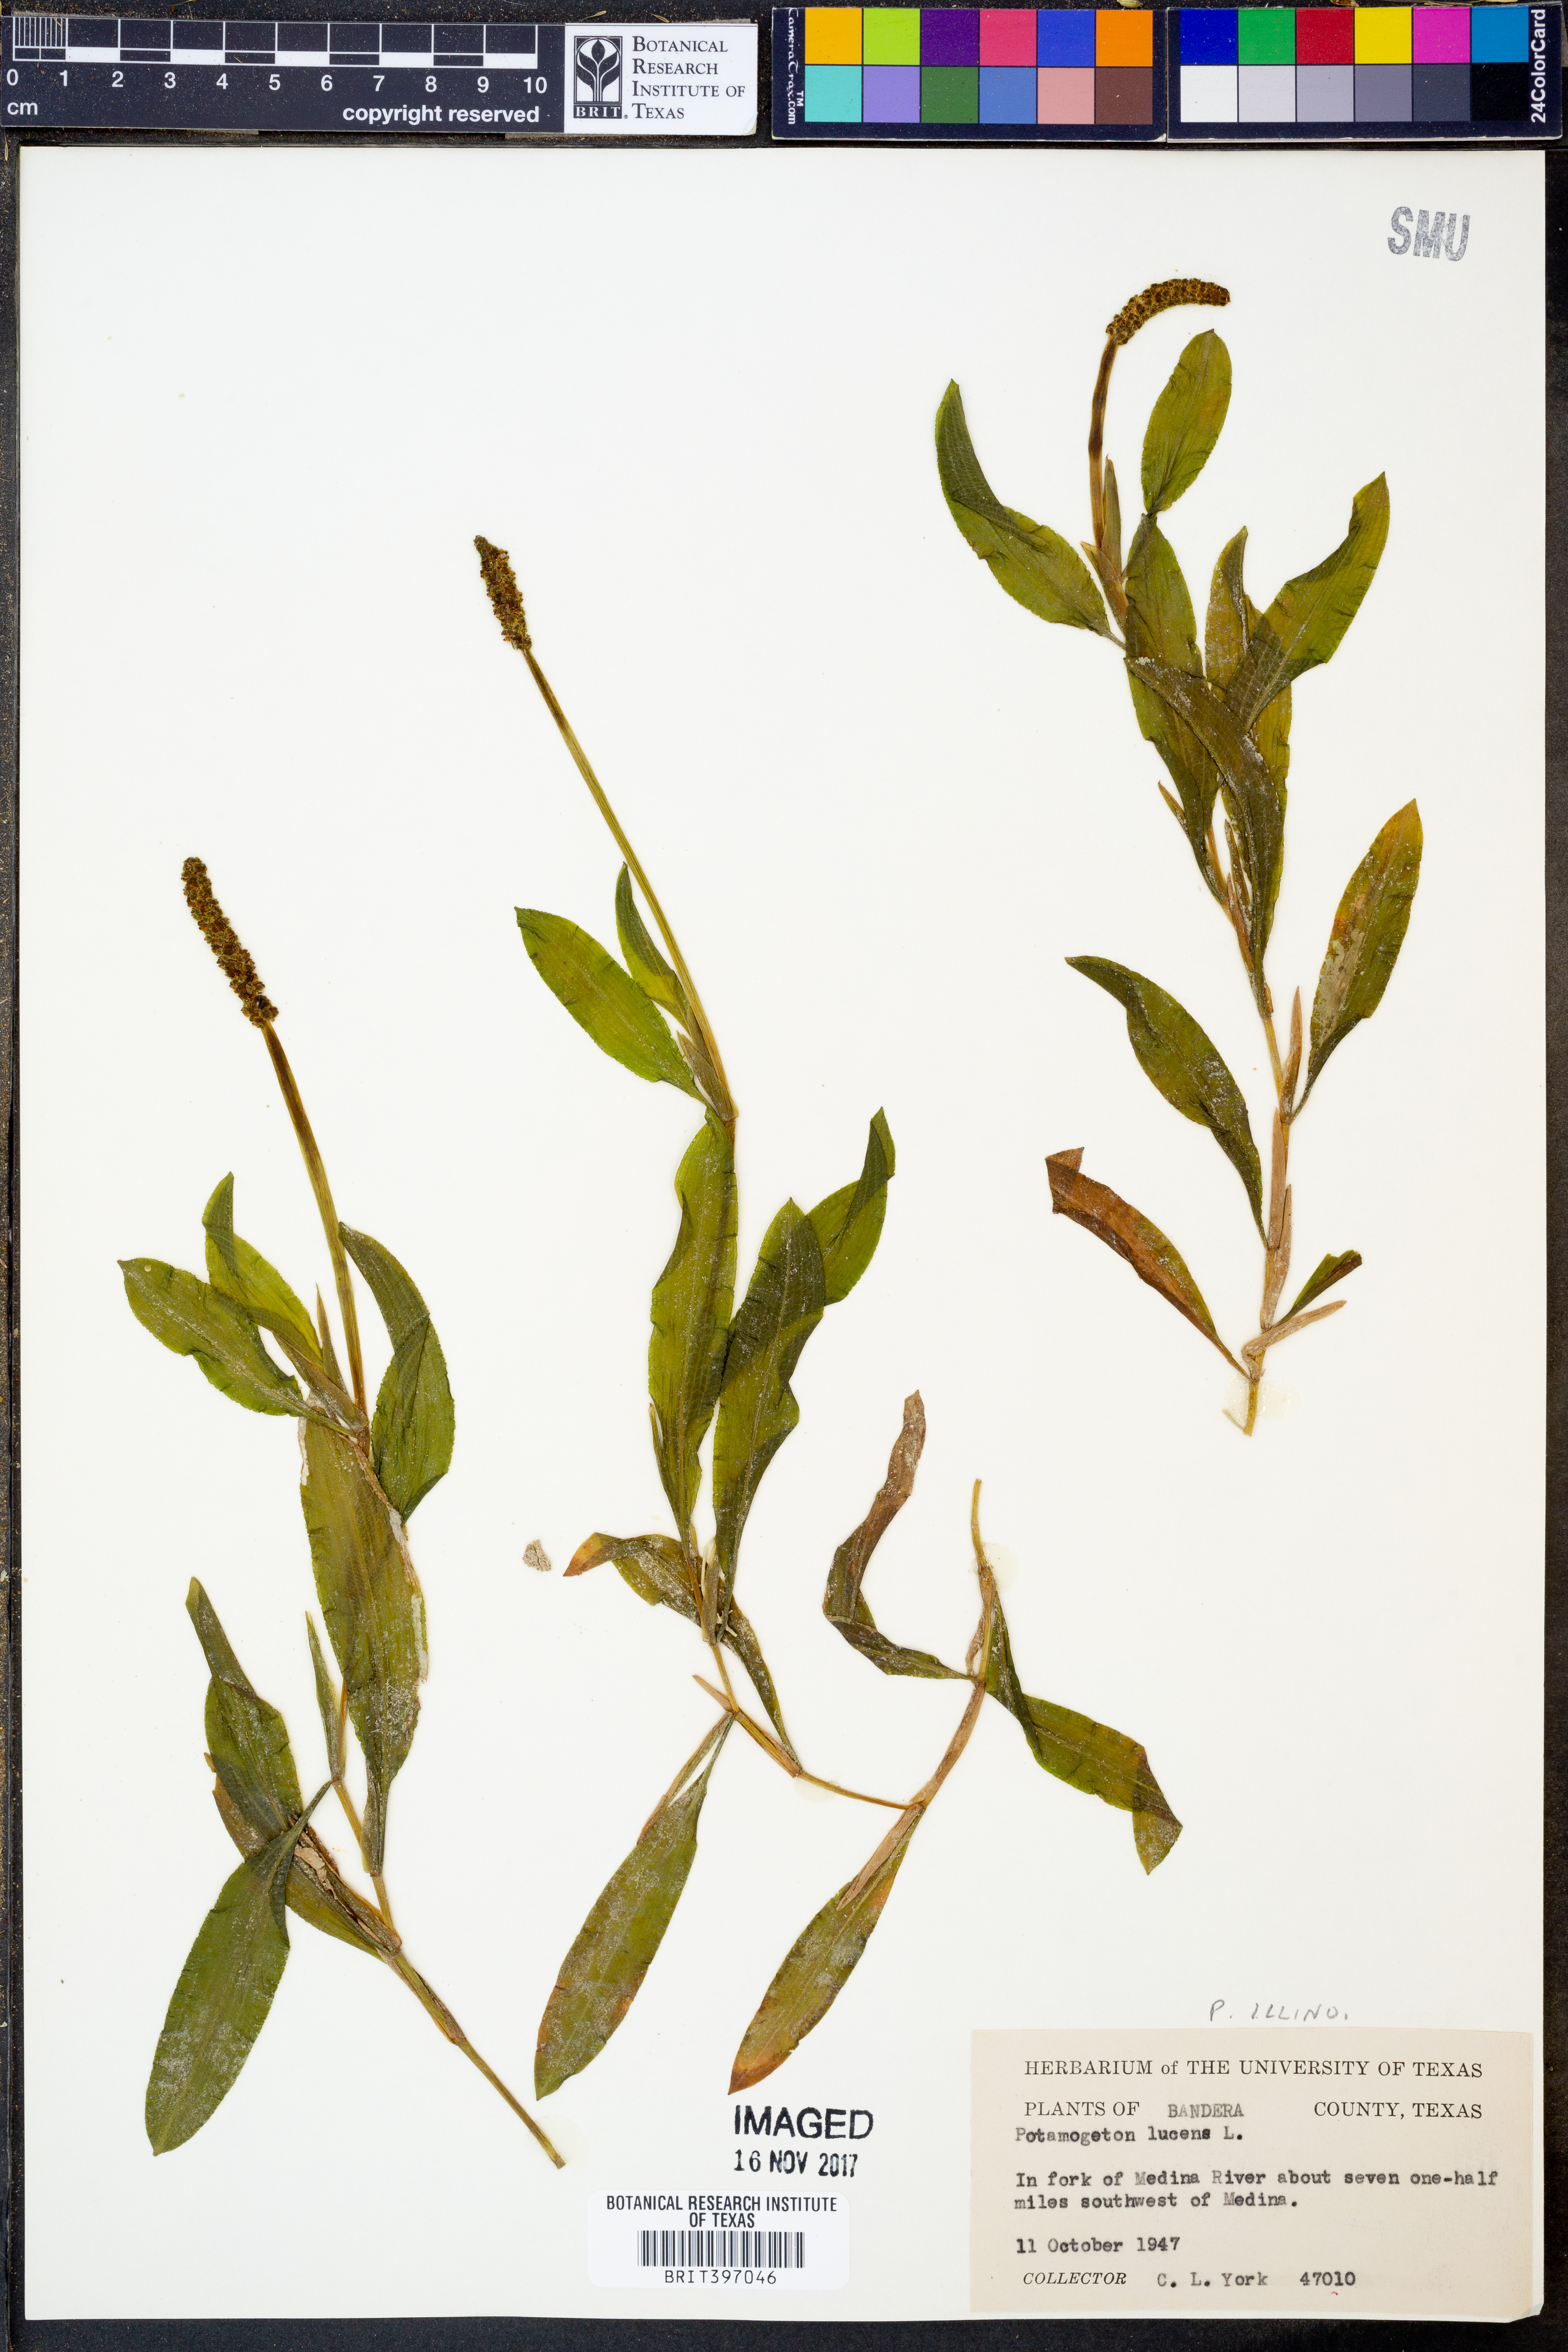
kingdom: Plantae
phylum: Tracheophyta
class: Liliopsida
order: Alismatales
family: Potamogetonaceae
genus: Potamogeton
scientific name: Potamogeton lucens
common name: Shining pondweed
